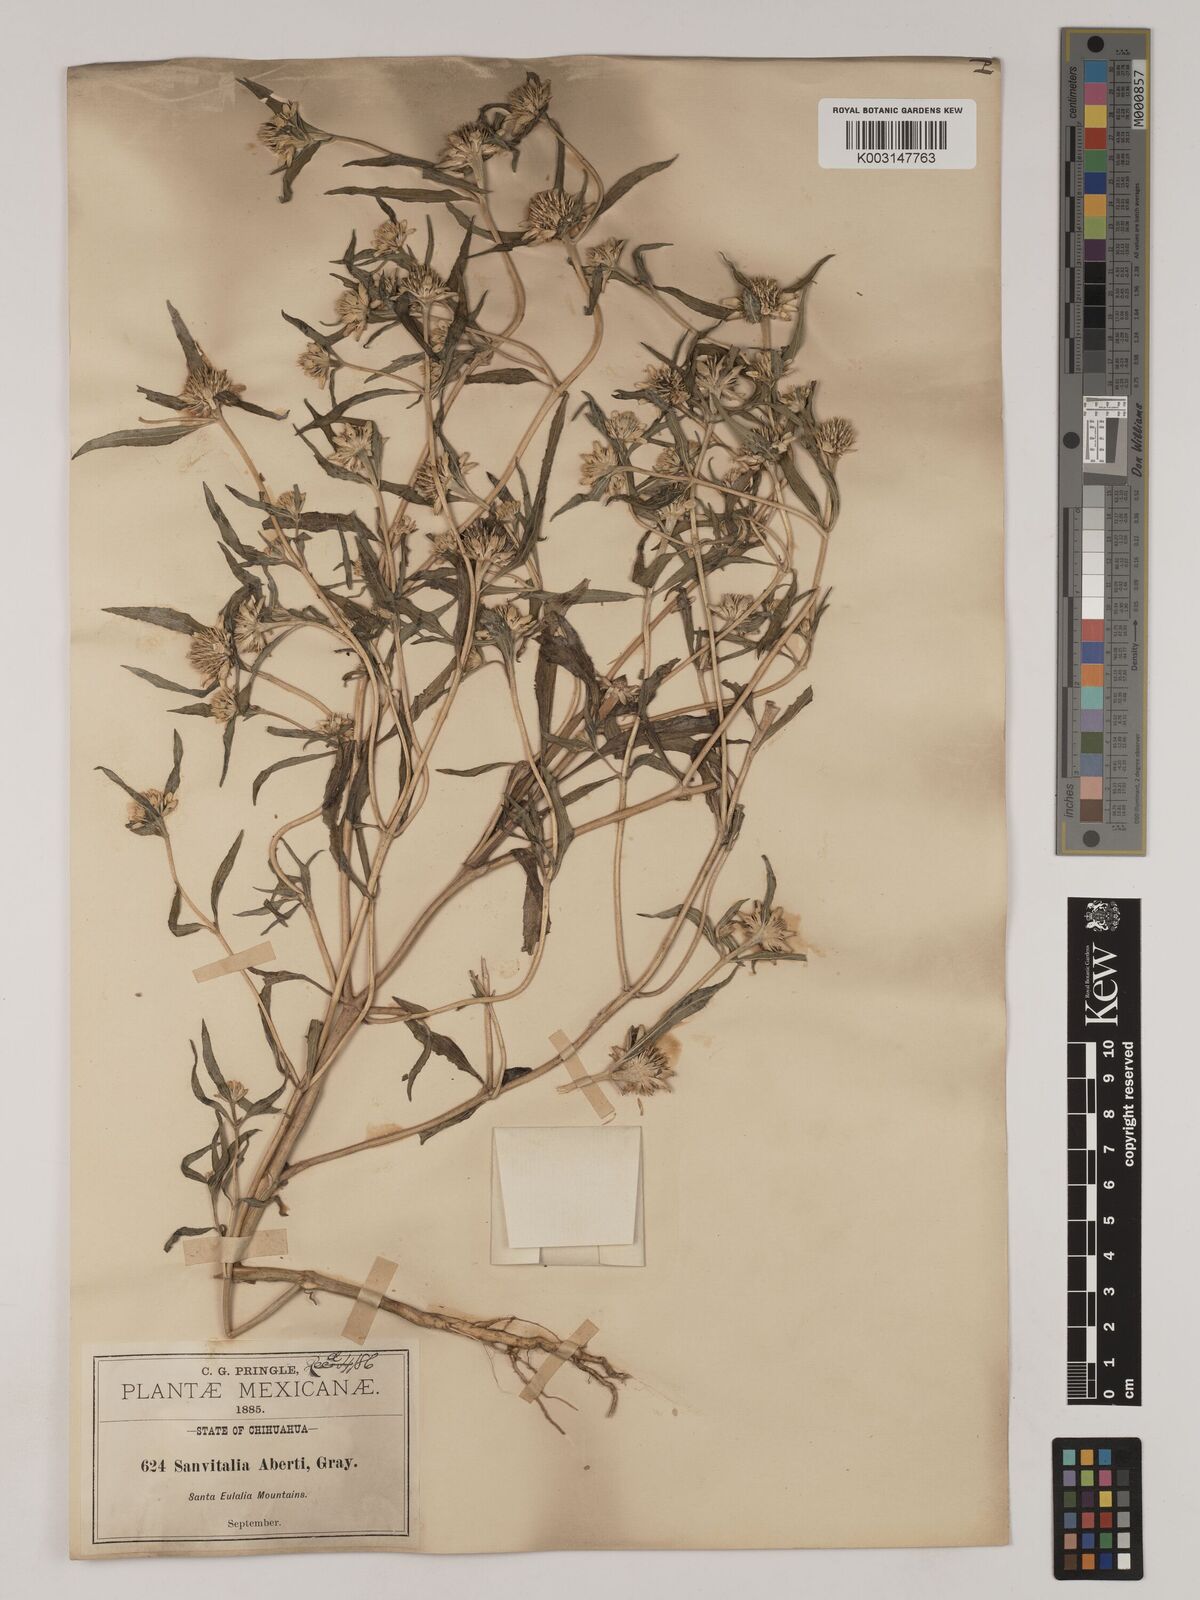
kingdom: Plantae
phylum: Tracheophyta
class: Magnoliopsida
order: Asterales
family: Asteraceae
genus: Sanvitalia
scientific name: Sanvitalia abertii
